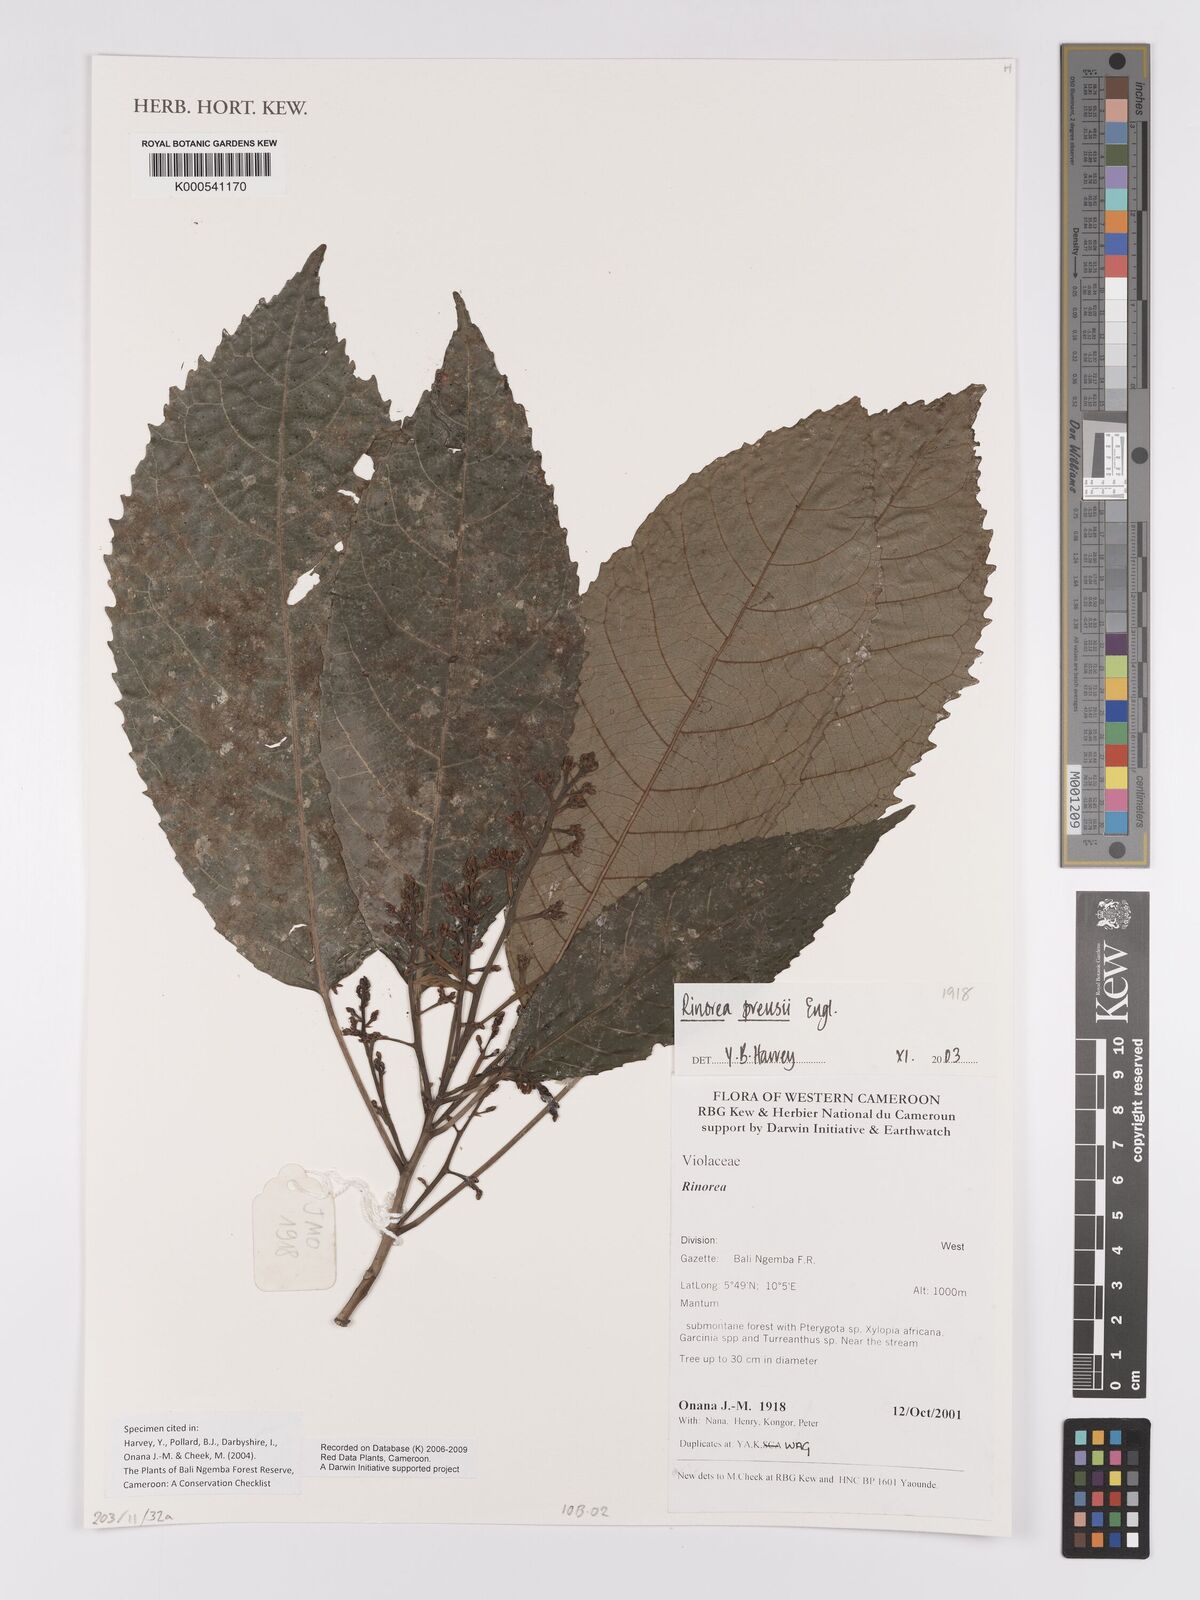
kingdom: Plantae
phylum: Tracheophyta
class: Magnoliopsida
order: Malpighiales
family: Violaceae
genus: Rinorea
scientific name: Rinorea preussii
